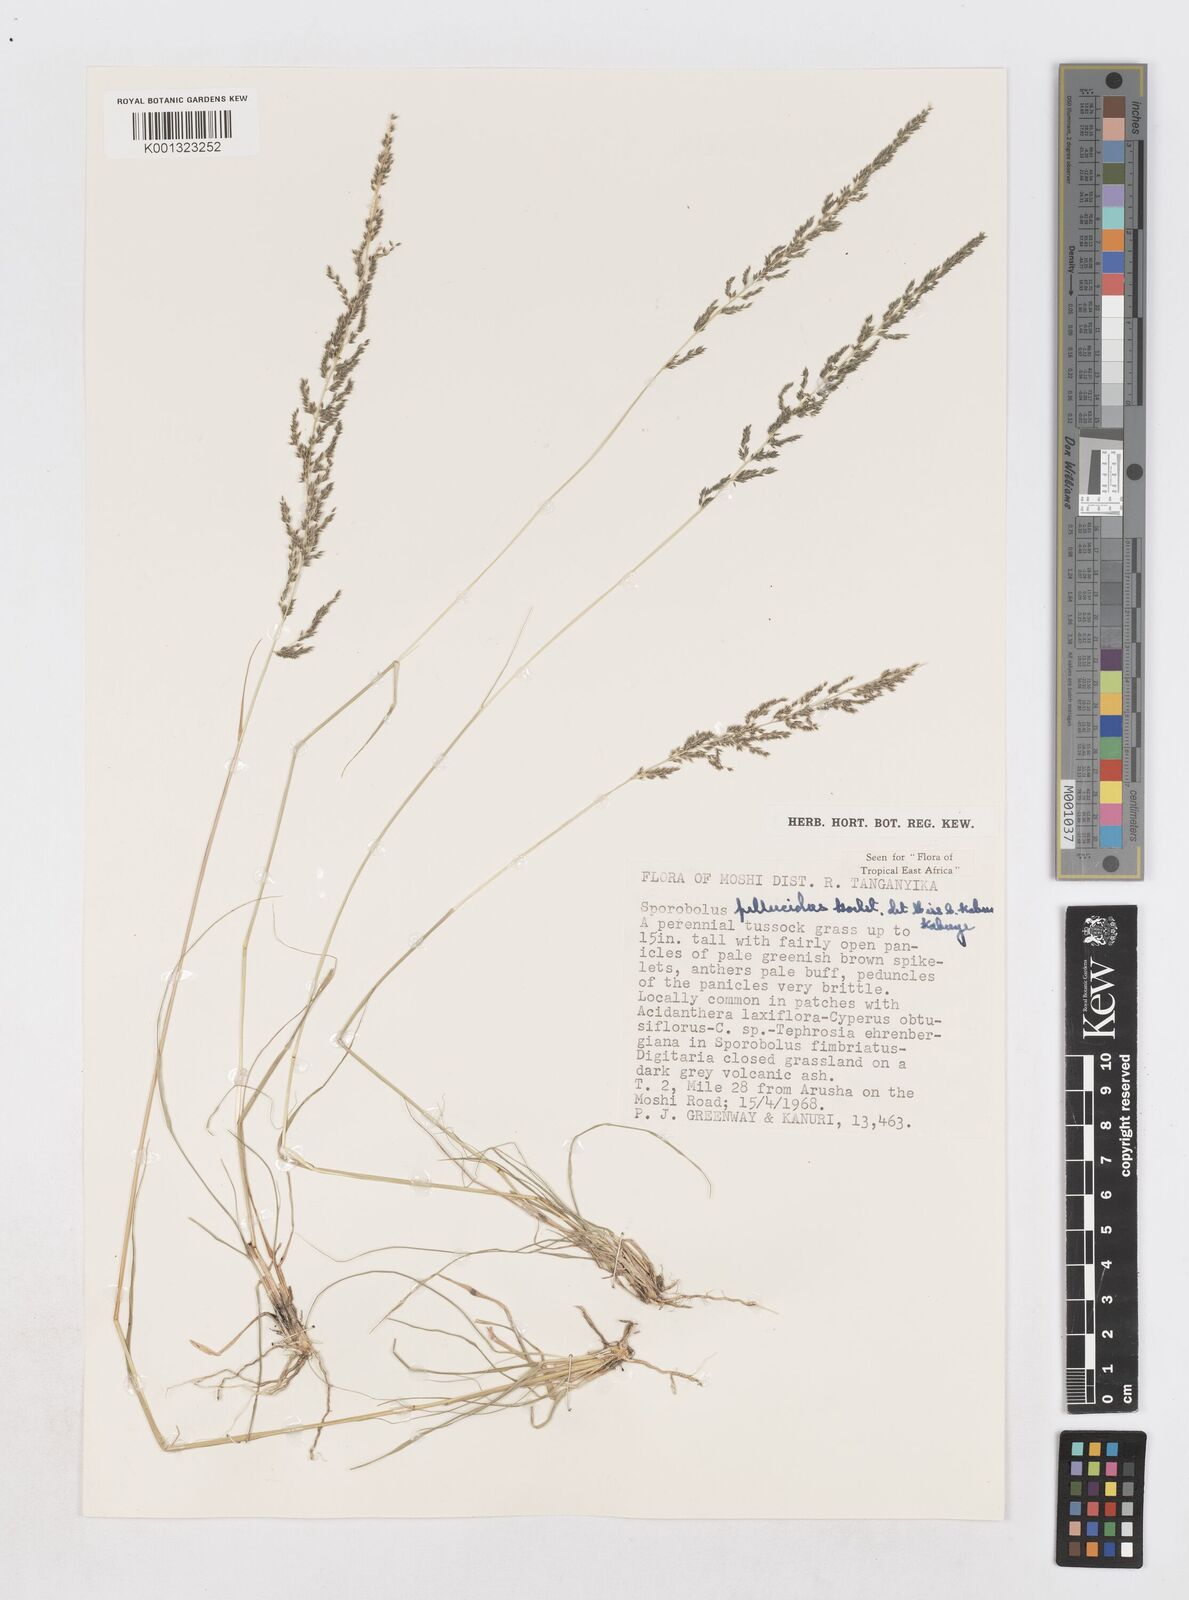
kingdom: Plantae
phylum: Tracheophyta
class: Liliopsida
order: Poales
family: Poaceae
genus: Sporobolus
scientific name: Sporobolus pellucidus
